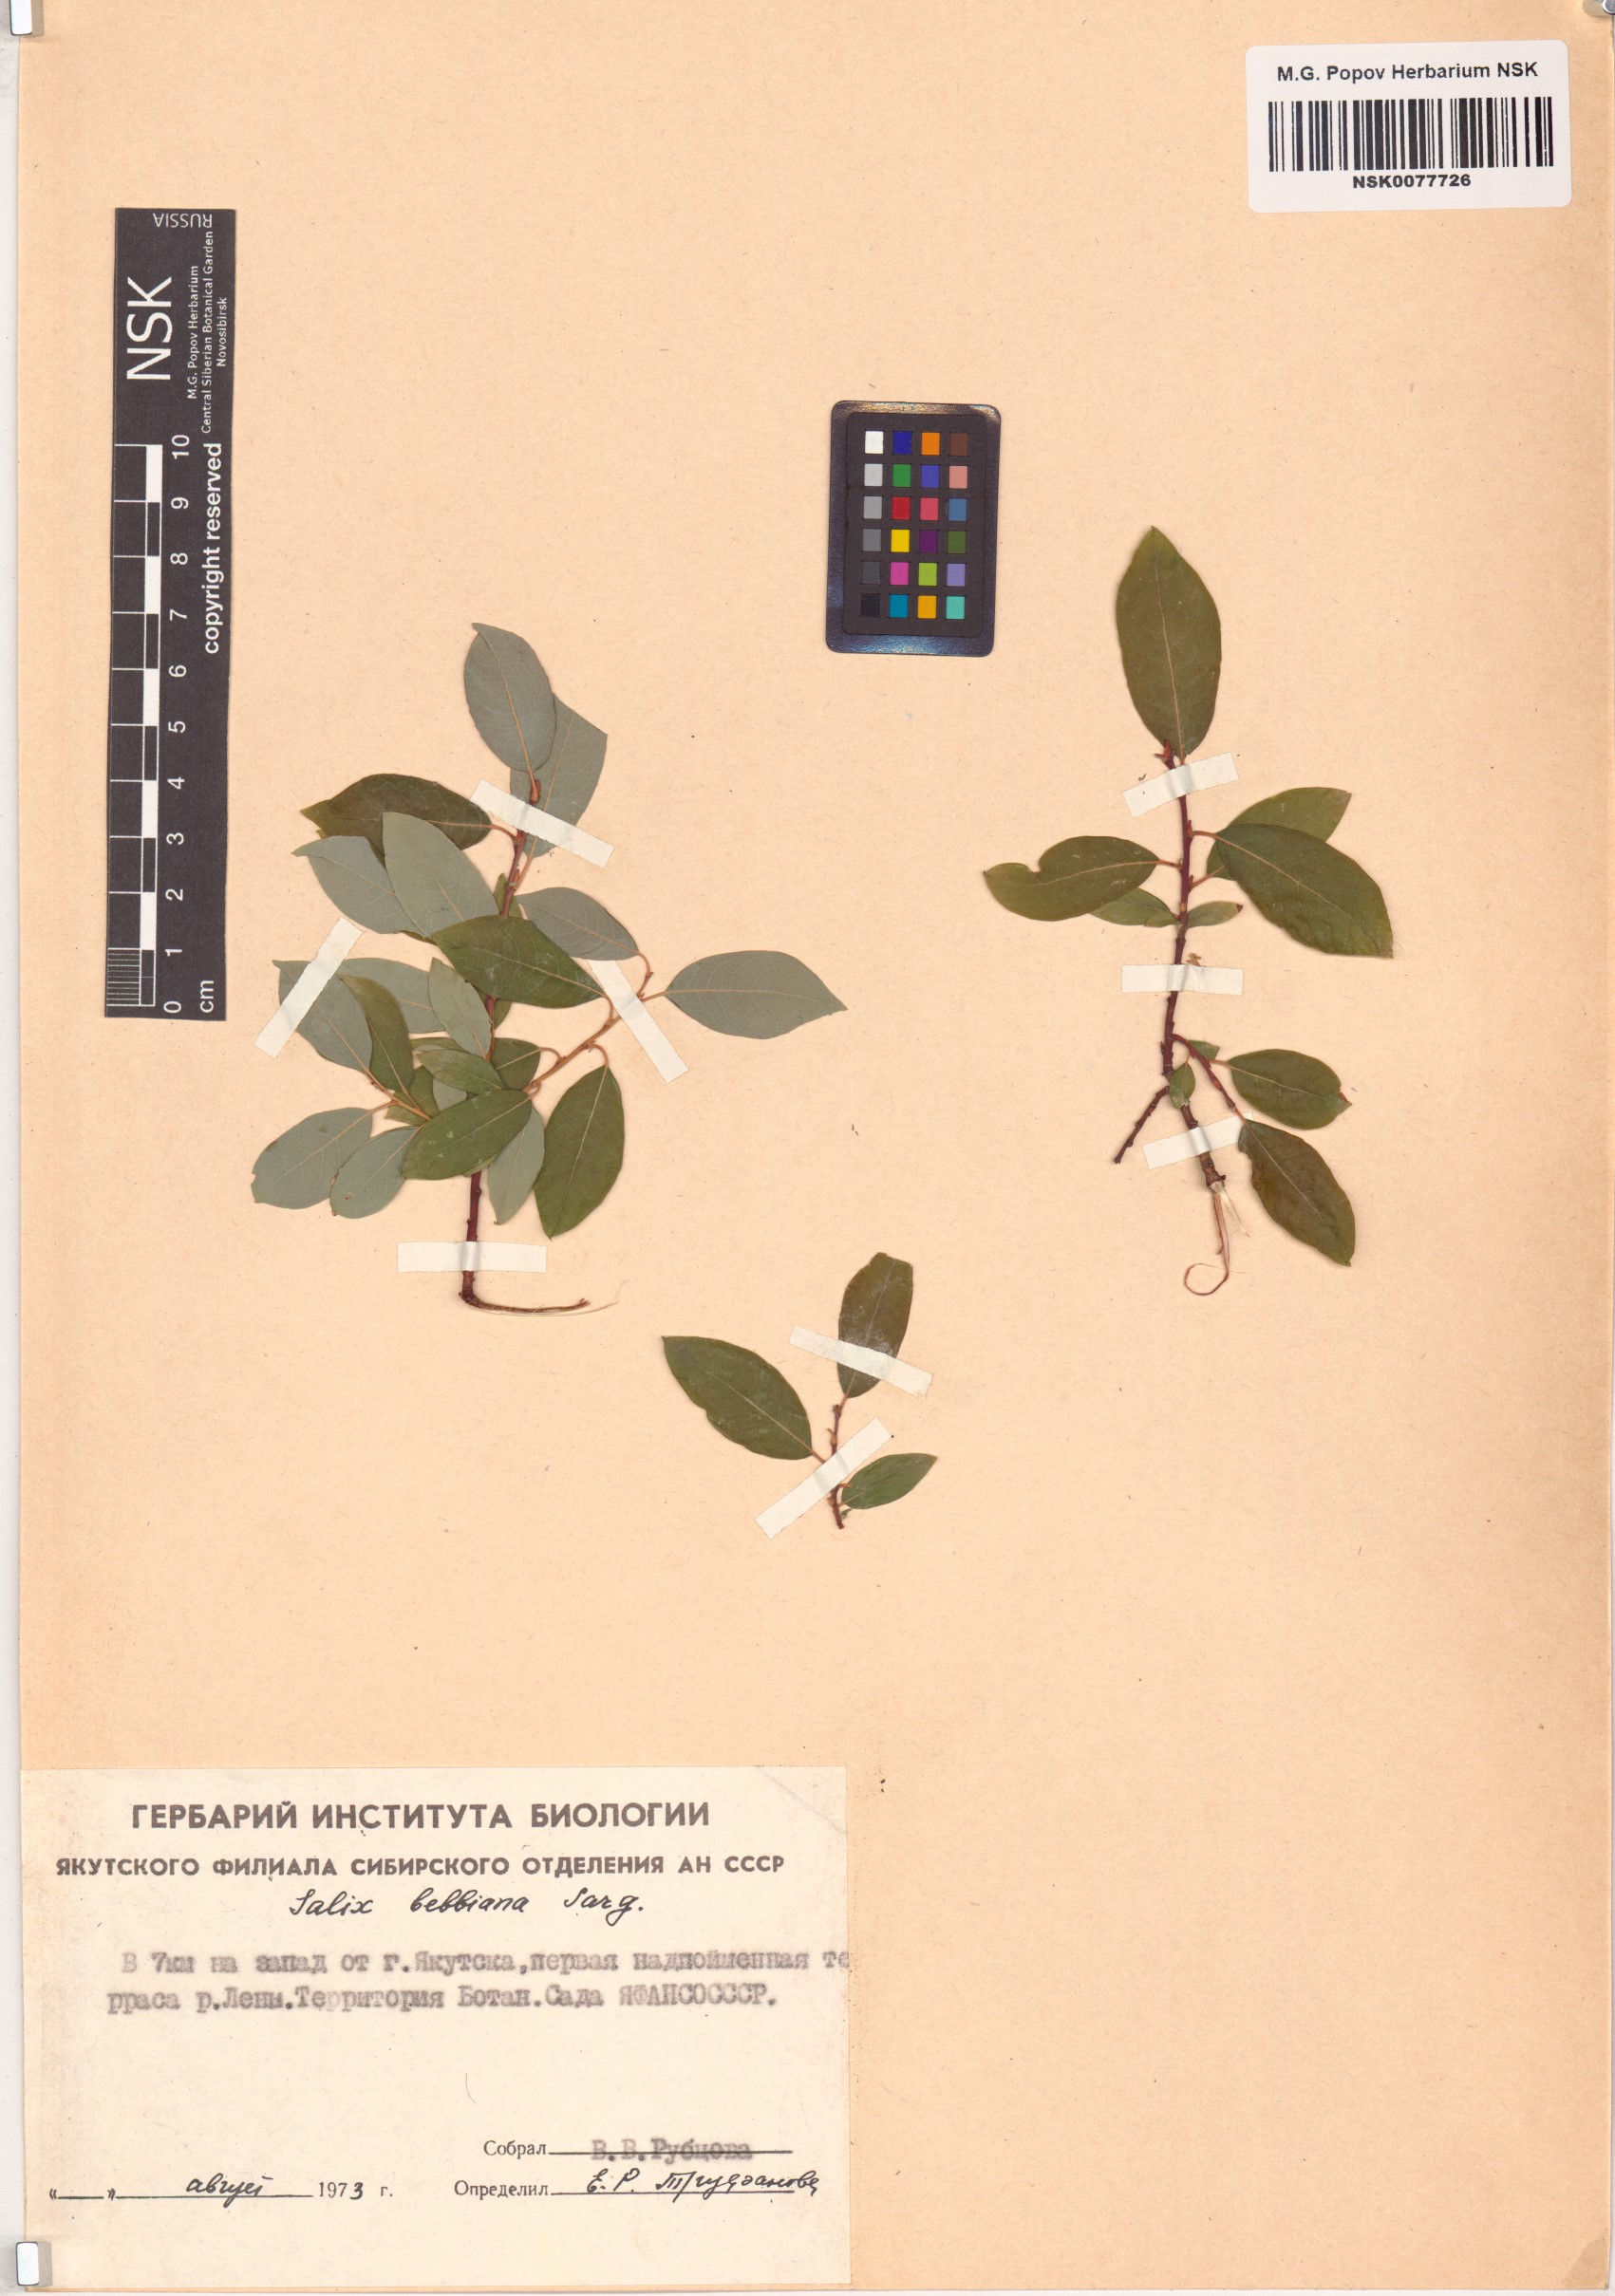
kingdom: Plantae
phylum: Tracheophyta
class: Magnoliopsida
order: Malpighiales
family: Salicaceae
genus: Salix
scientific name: Salix bebbiana
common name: Bebb's willow
